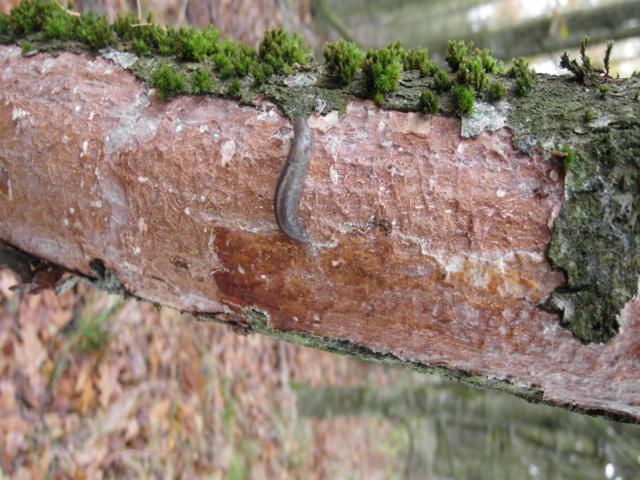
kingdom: Fungi
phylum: Basidiomycota
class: Agaricomycetes
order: Corticiales
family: Vuilleminiaceae
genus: Vuilleminia
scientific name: Vuilleminia comedens
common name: almindelig barksprænger
